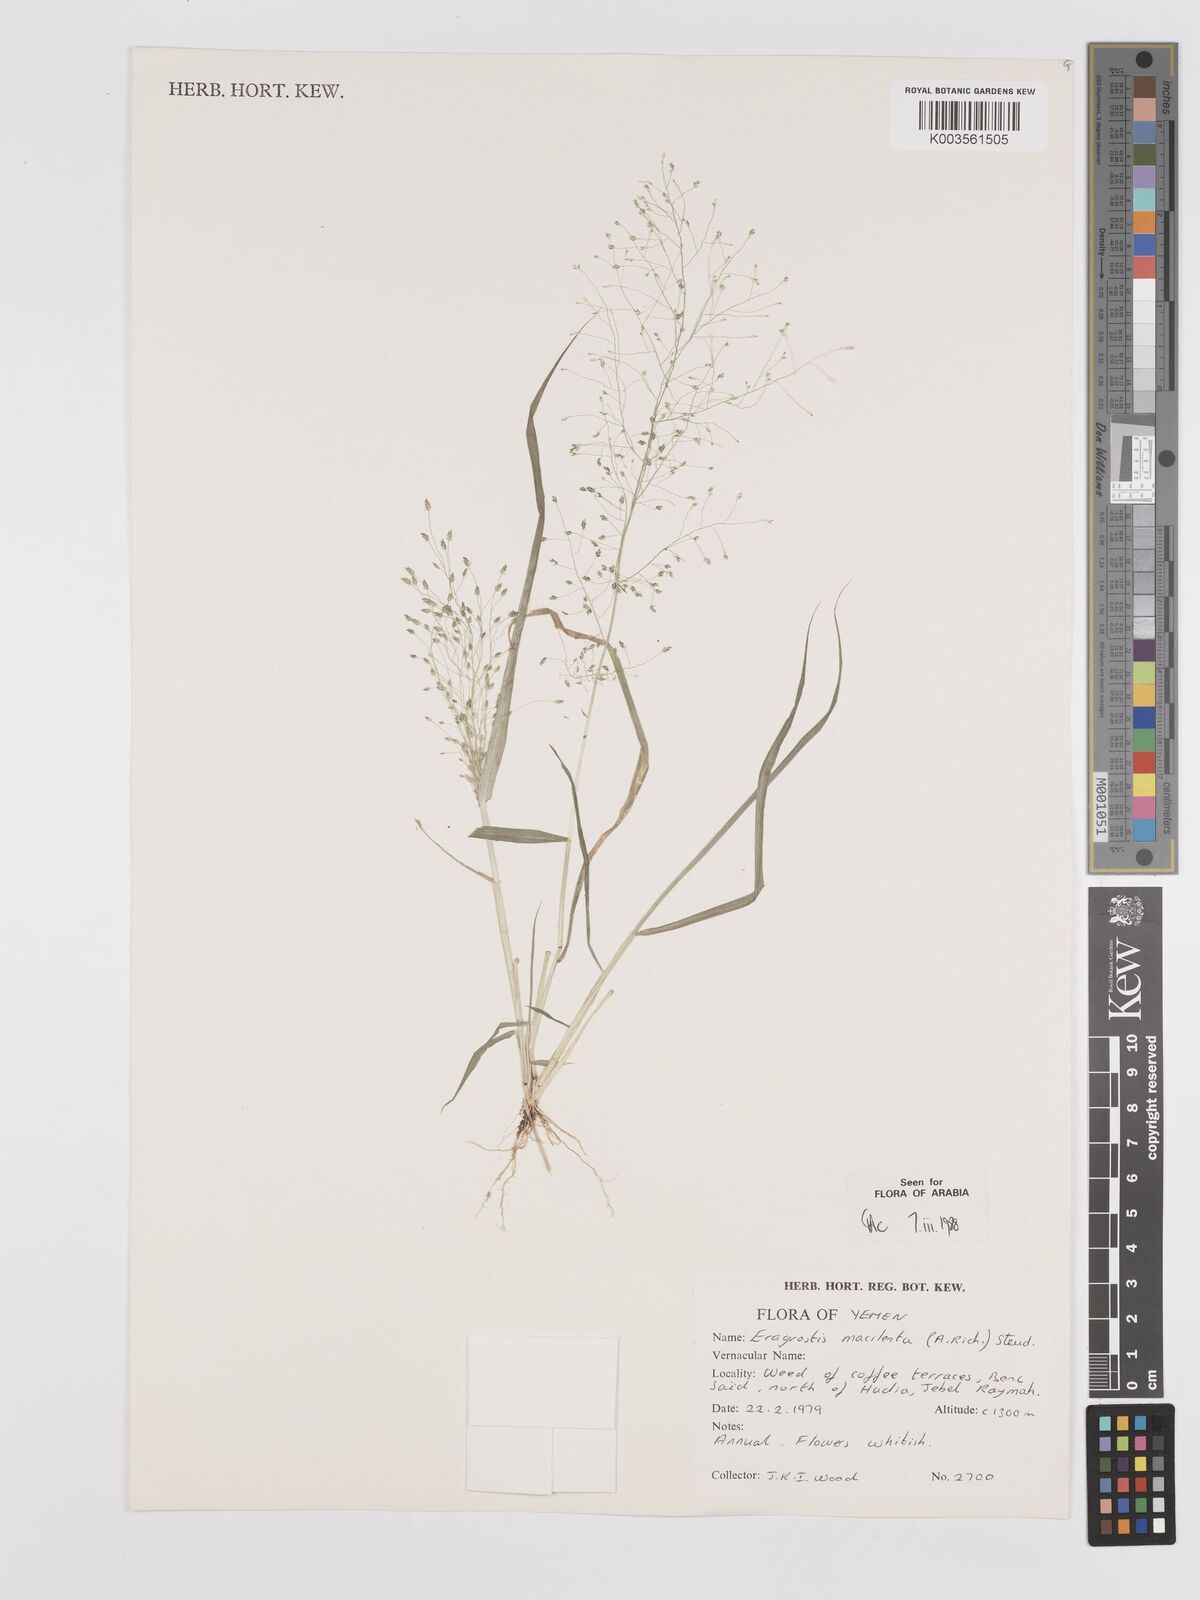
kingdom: Plantae
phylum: Tracheophyta
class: Liliopsida
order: Poales
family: Poaceae
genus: Eragrostis
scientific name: Eragrostis macilenta
